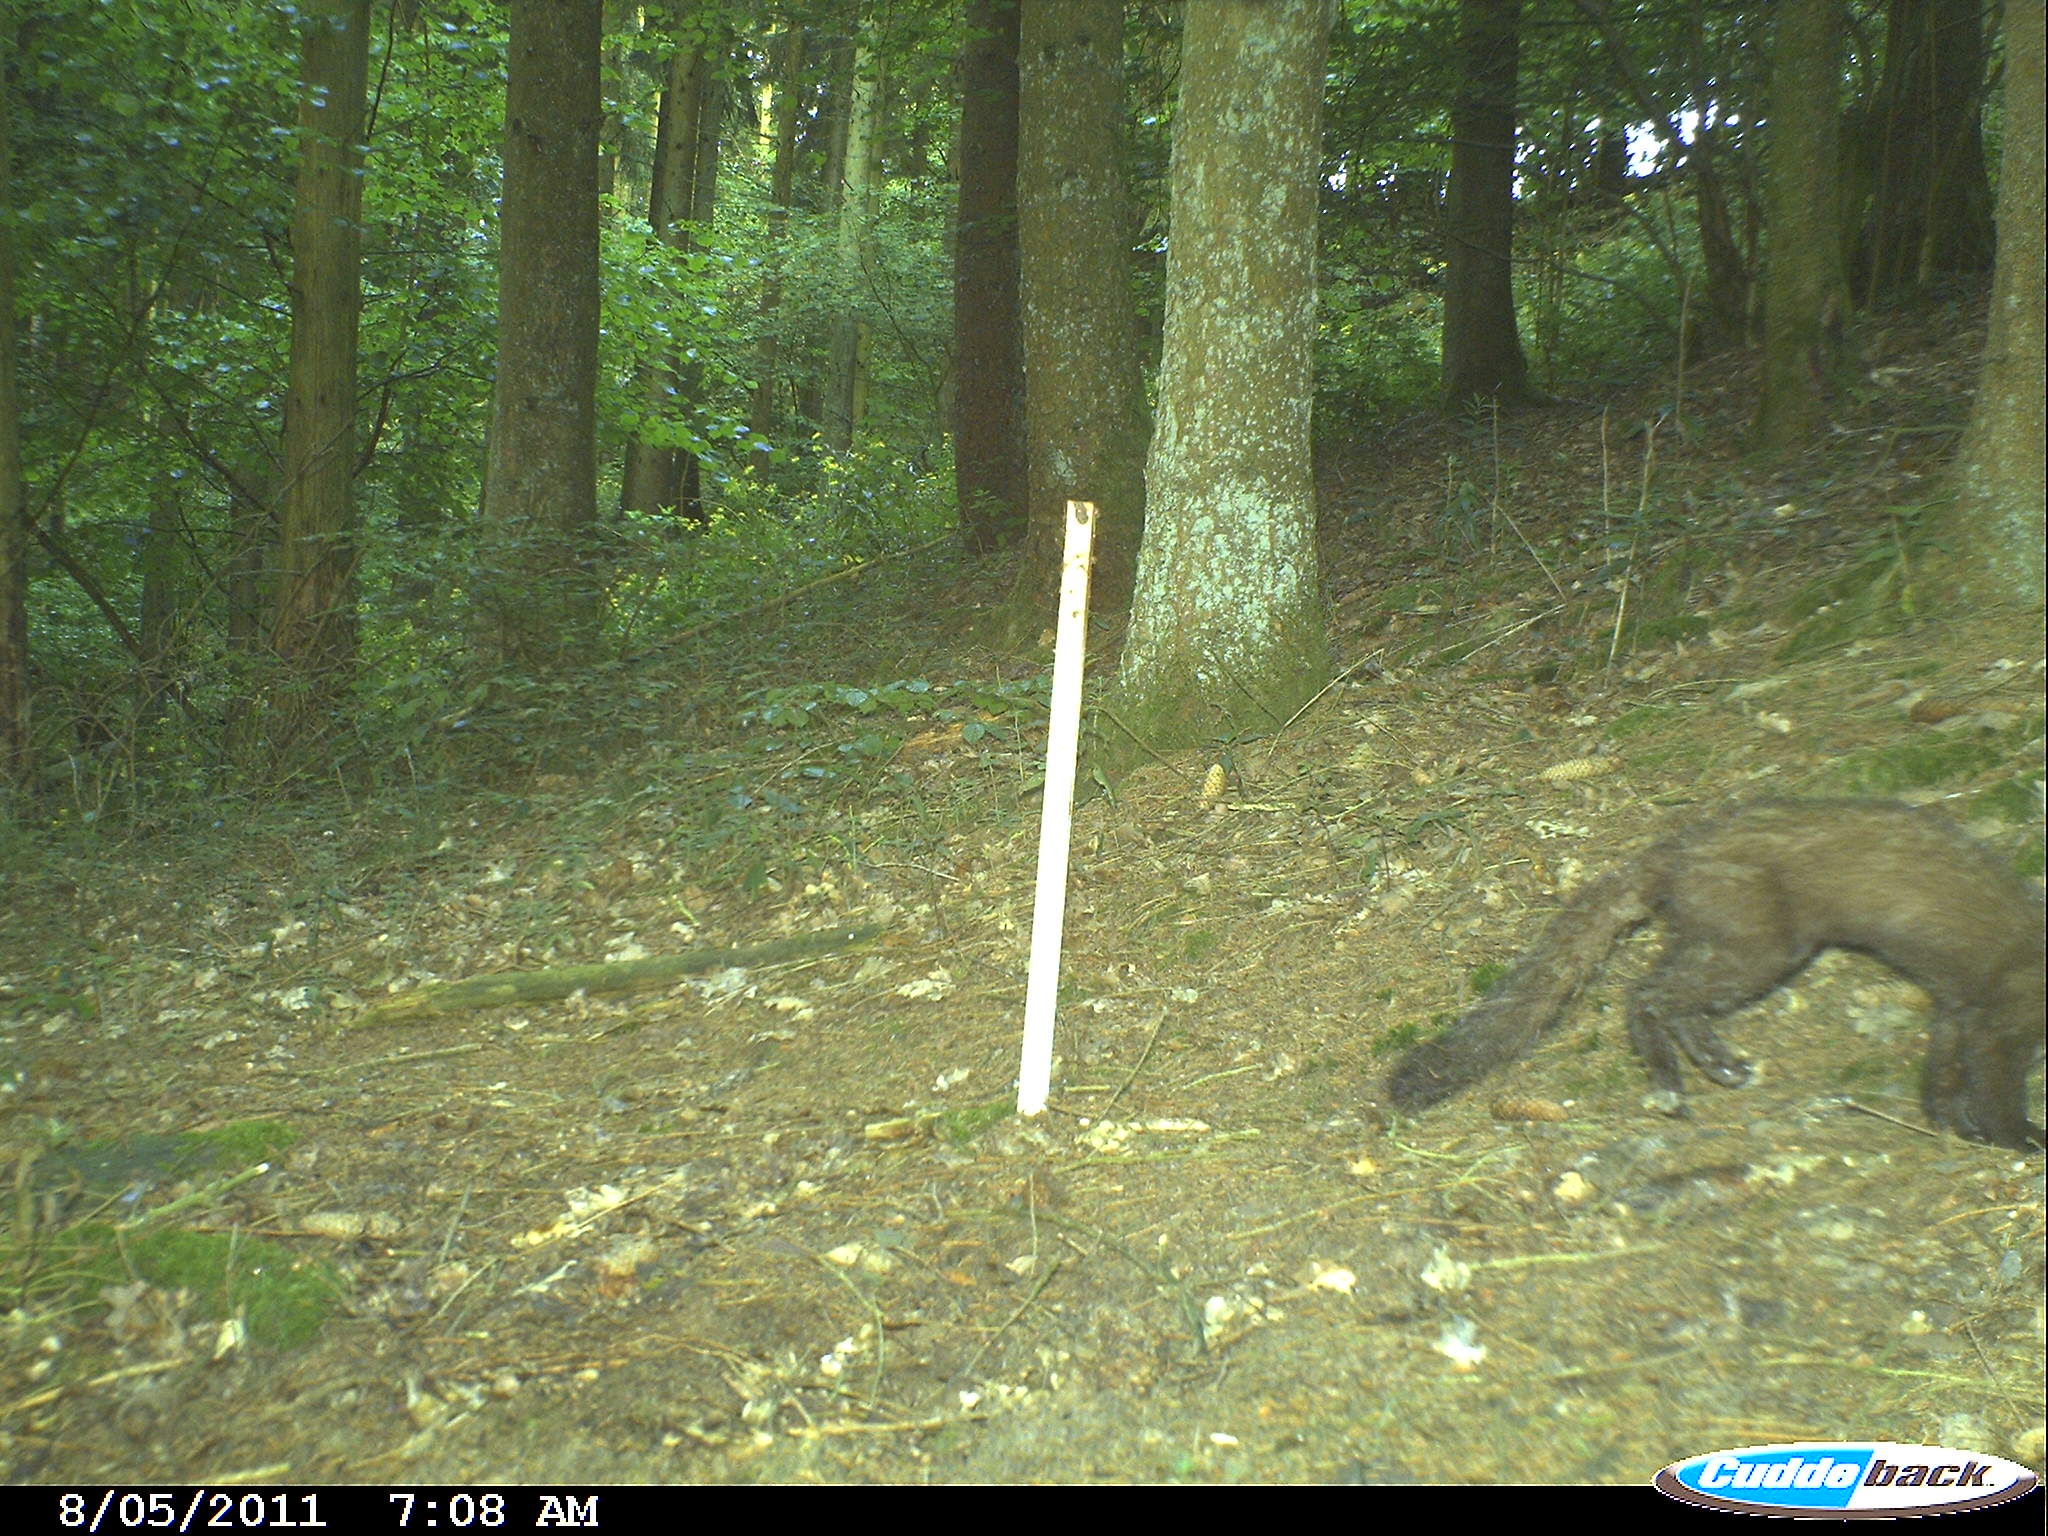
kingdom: Animalia
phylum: Chordata
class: Mammalia
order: Carnivora
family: Mustelidae
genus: Martes
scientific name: Martes
